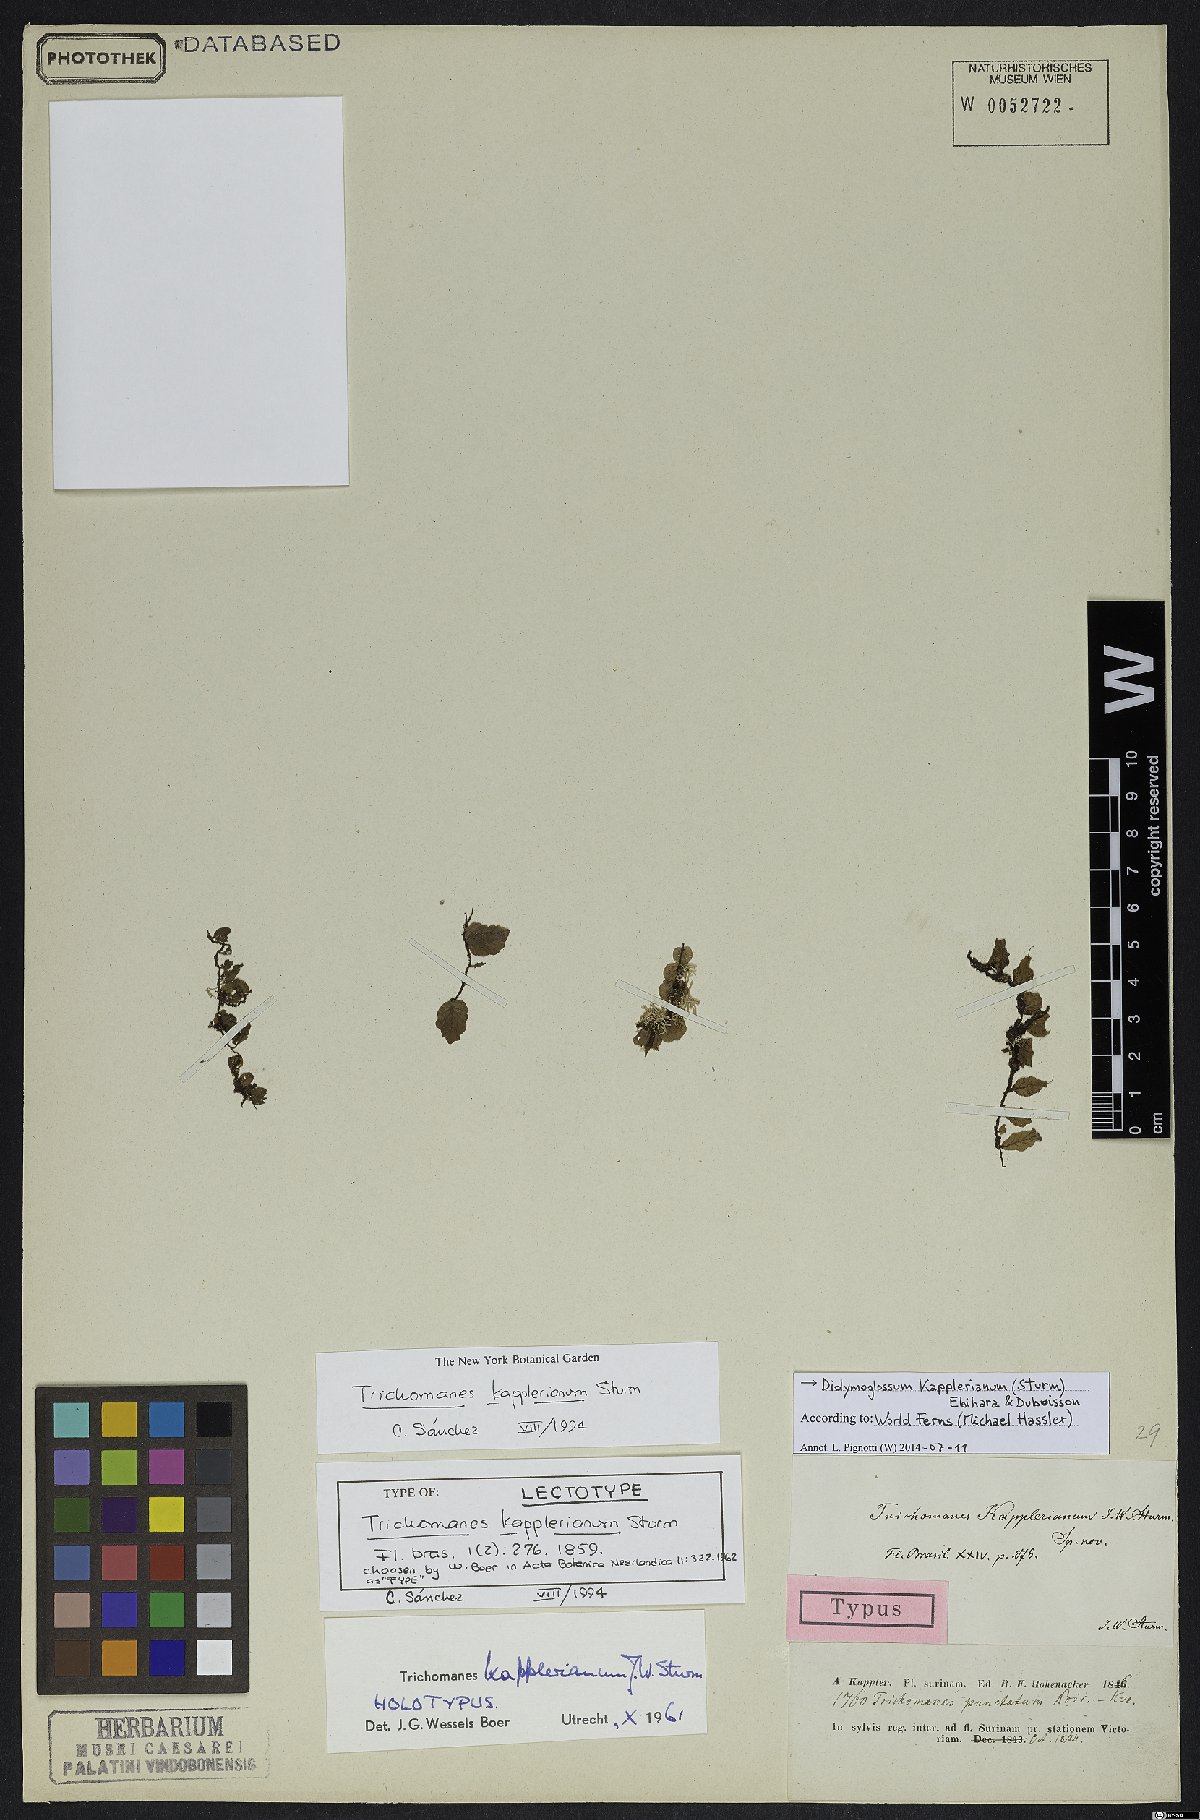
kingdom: Plantae
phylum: Tracheophyta
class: Polypodiopsida
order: Hymenophyllales
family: Hymenophyllaceae
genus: Didymoglossum
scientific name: Didymoglossum kapplerianum
